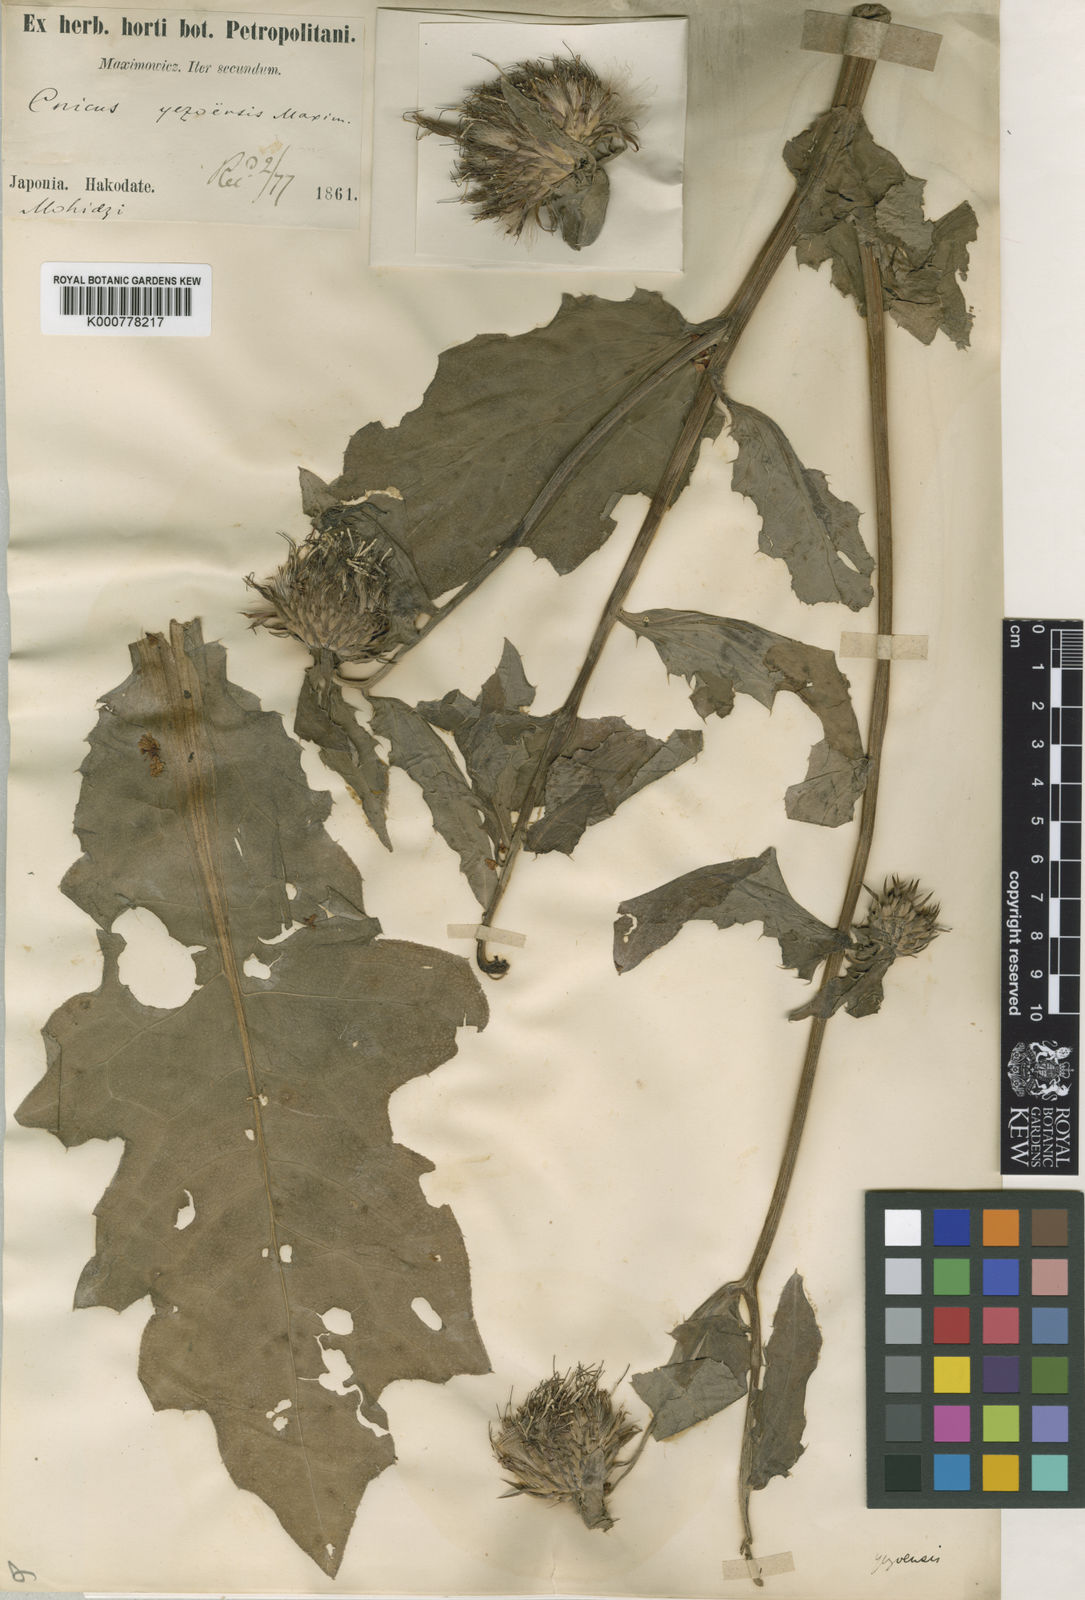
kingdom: Plantae
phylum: Tracheophyta
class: Magnoliopsida
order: Asterales
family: Asteraceae
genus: Cirsium
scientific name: Cirsium yezoense
